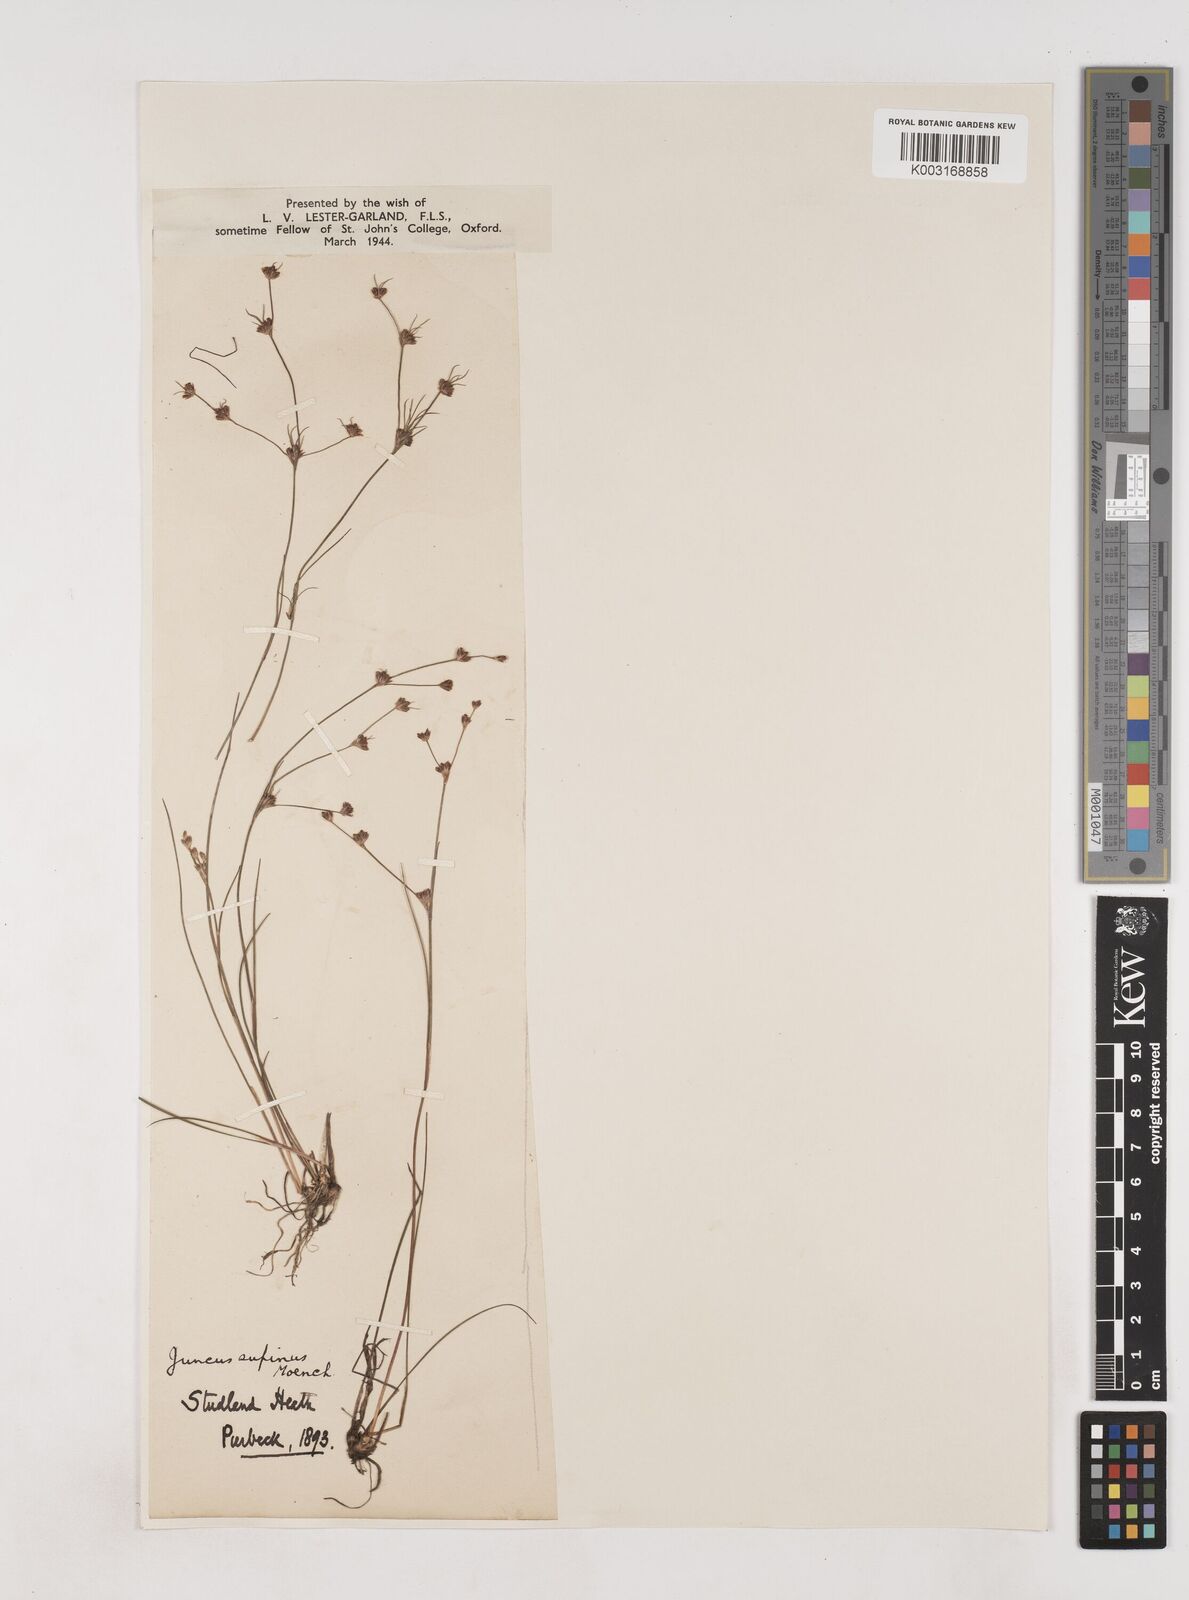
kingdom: Plantae
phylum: Tracheophyta
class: Liliopsida
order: Poales
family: Juncaceae
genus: Juncus
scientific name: Juncus bulbosus
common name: Bulbous rush
